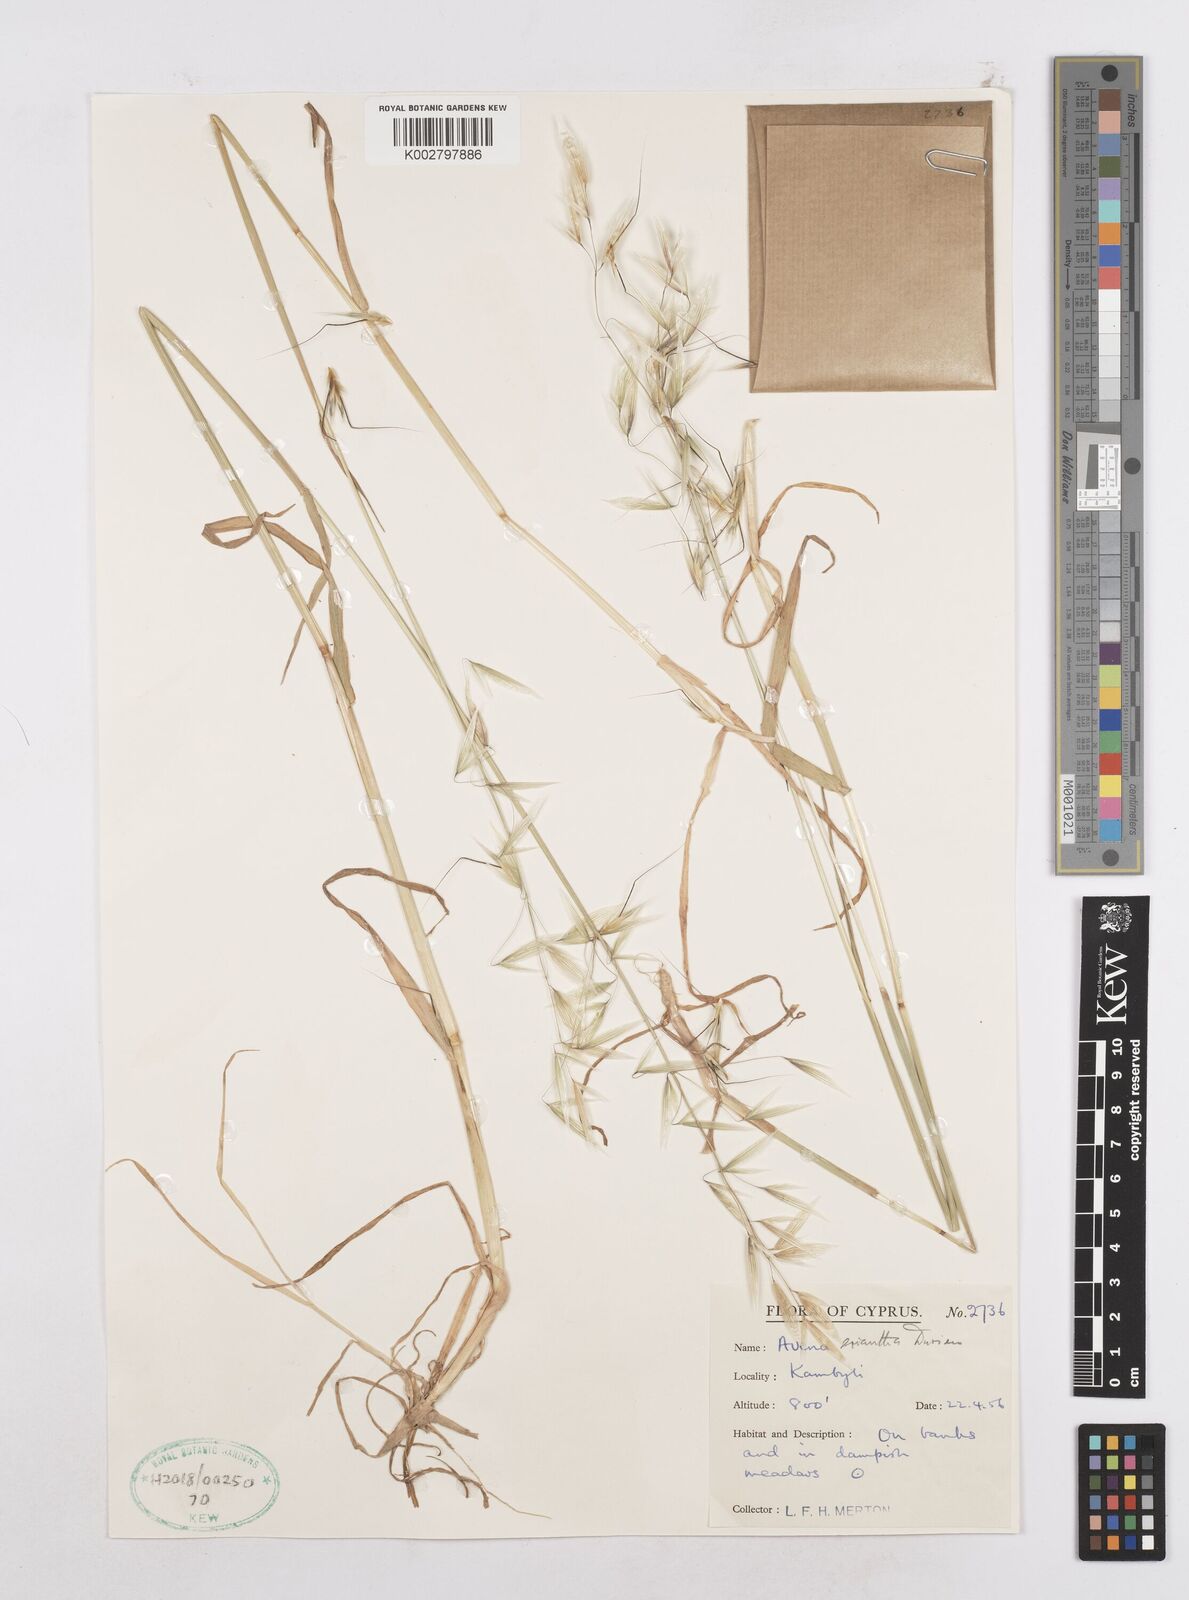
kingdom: Plantae
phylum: Tracheophyta
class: Liliopsida
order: Poales
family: Poaceae
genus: Avena
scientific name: Avena eriantha
